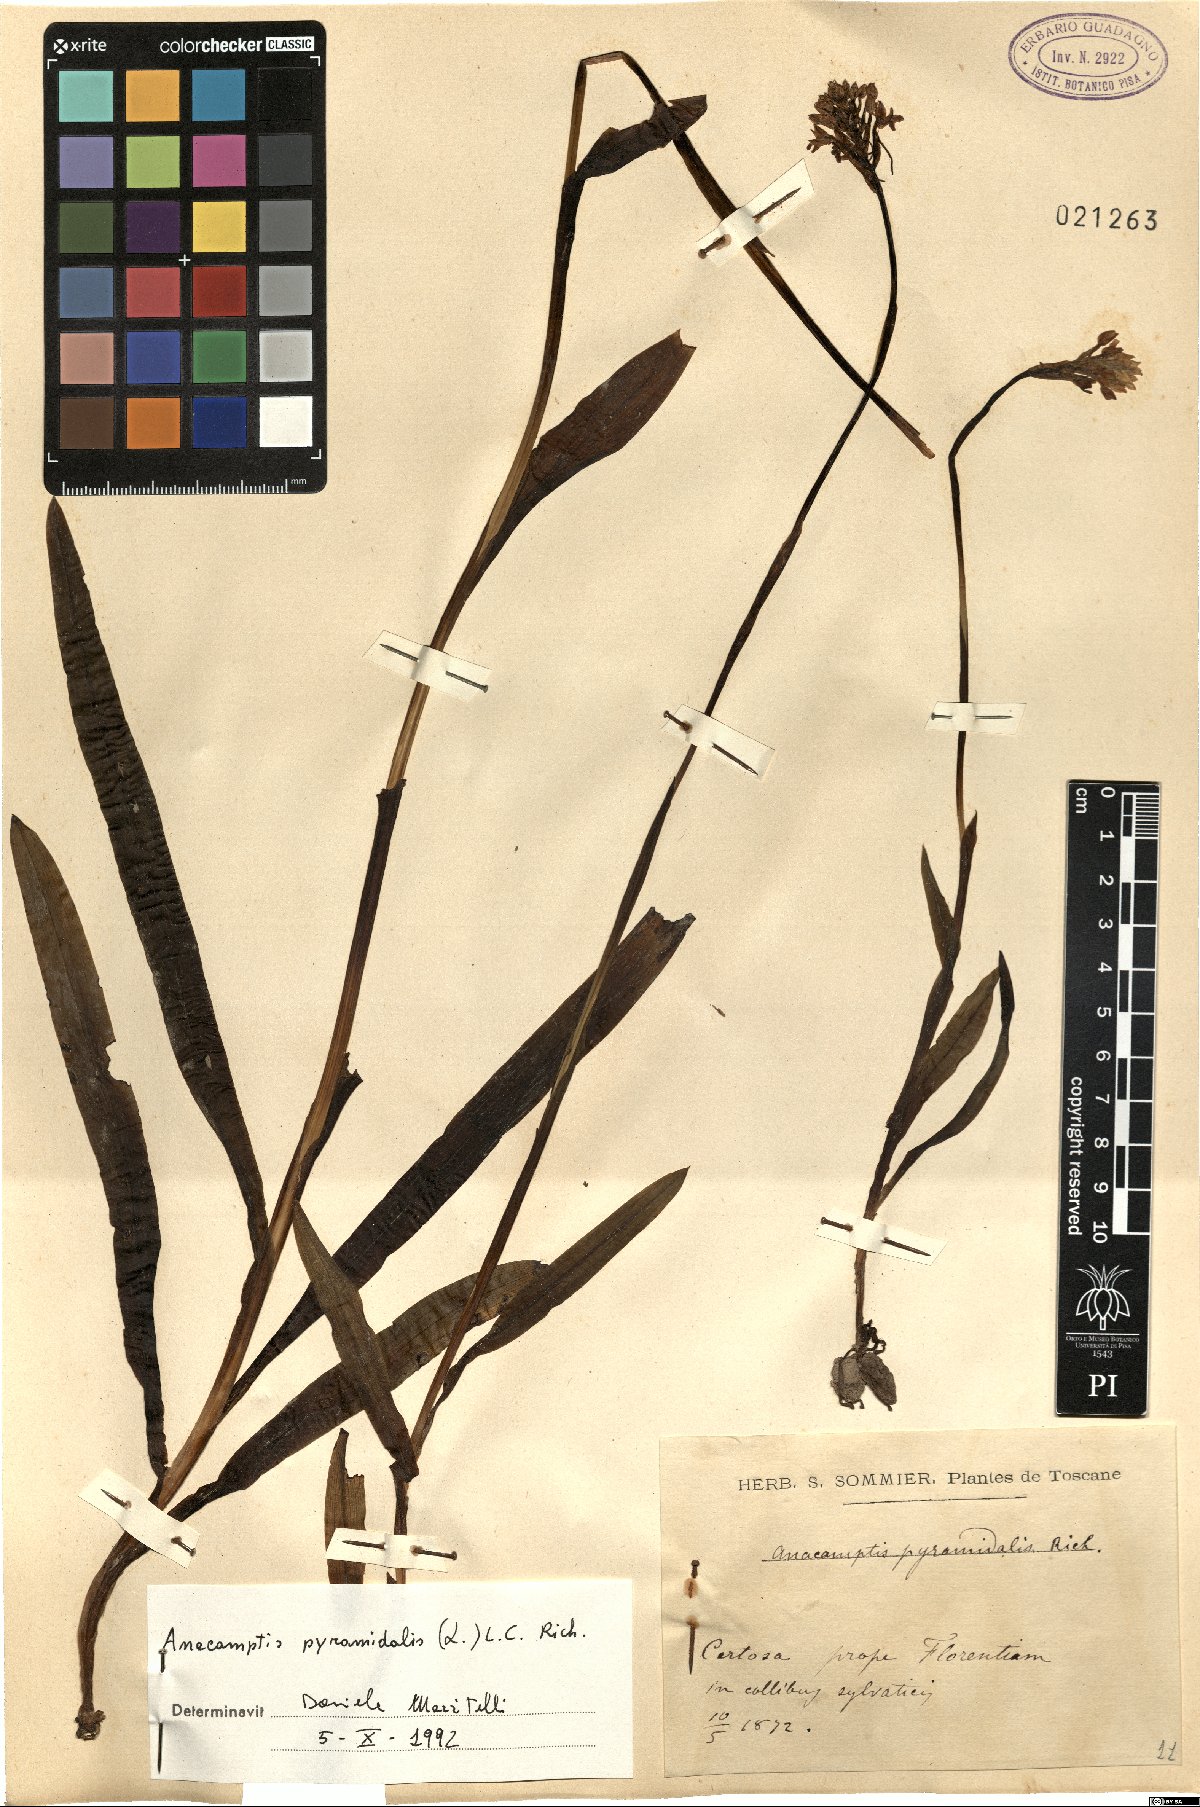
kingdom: Plantae
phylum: Tracheophyta
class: Liliopsida
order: Asparagales
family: Orchidaceae
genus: Anacamptis
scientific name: Anacamptis pyramidalis
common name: Pyramidal orchid
